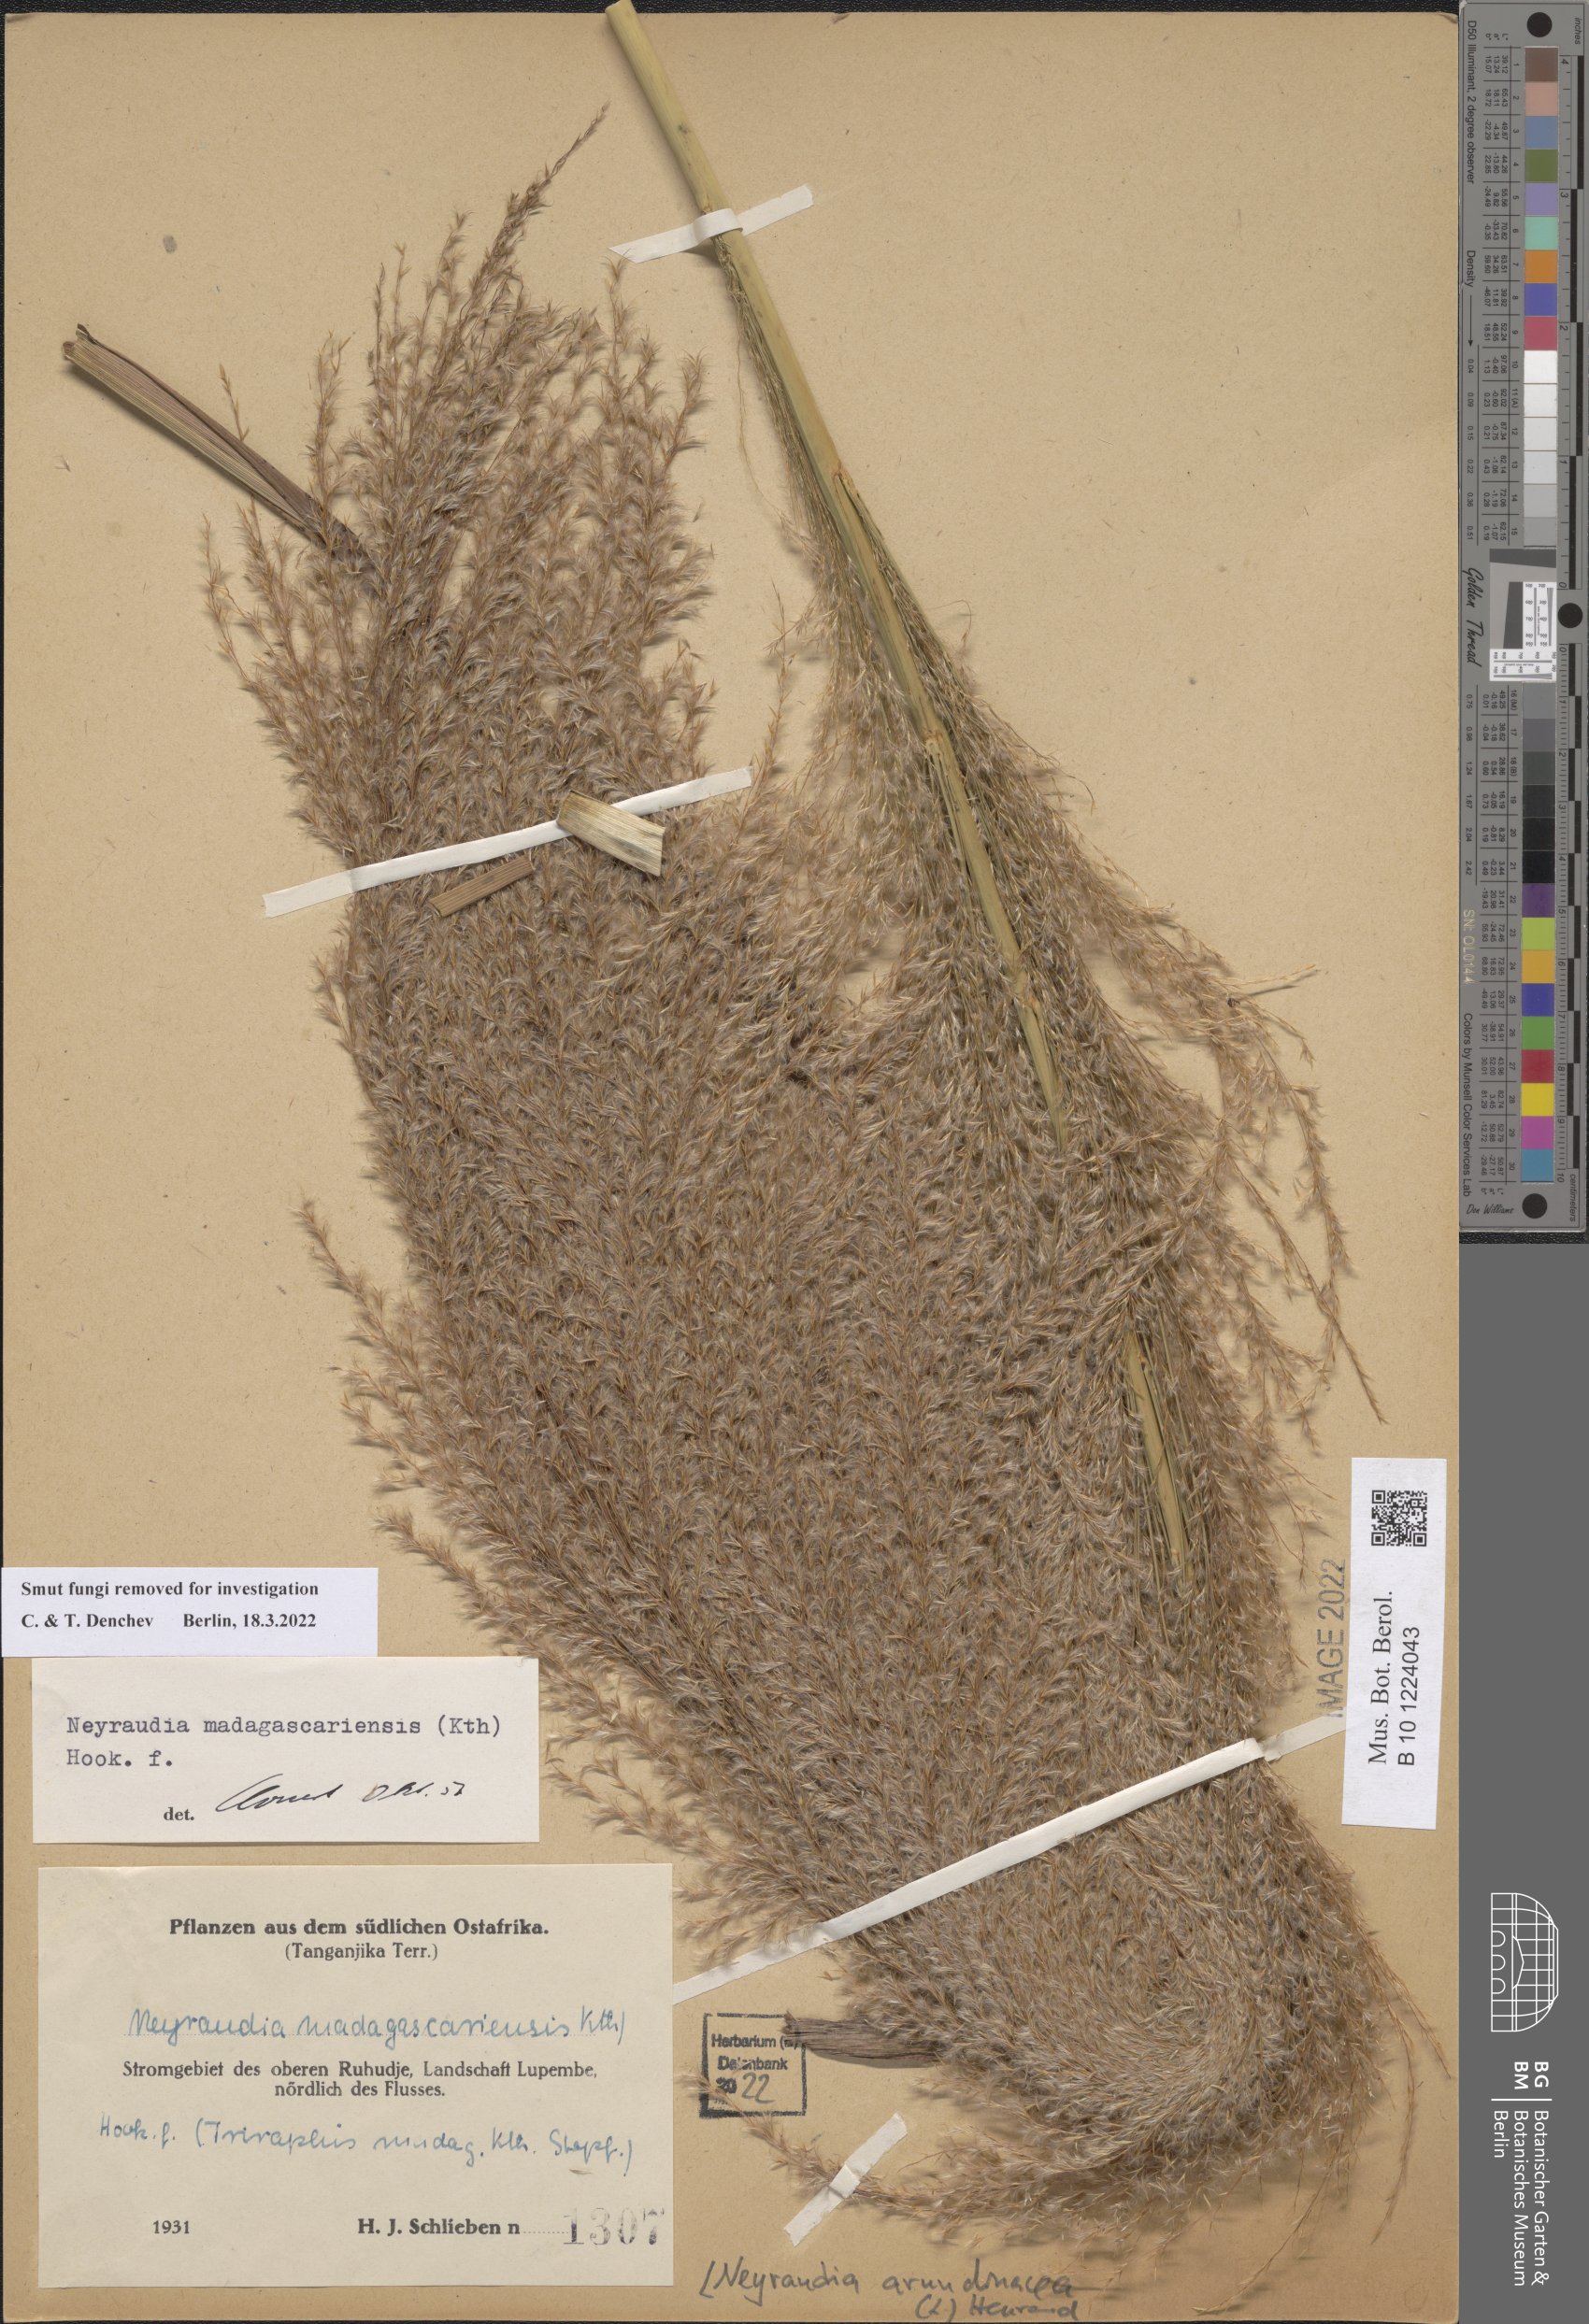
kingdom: Plantae
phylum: Tracheophyta
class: Liliopsida
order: Poales
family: Poaceae
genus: Neyraudia
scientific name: Neyraudia arundinacea
